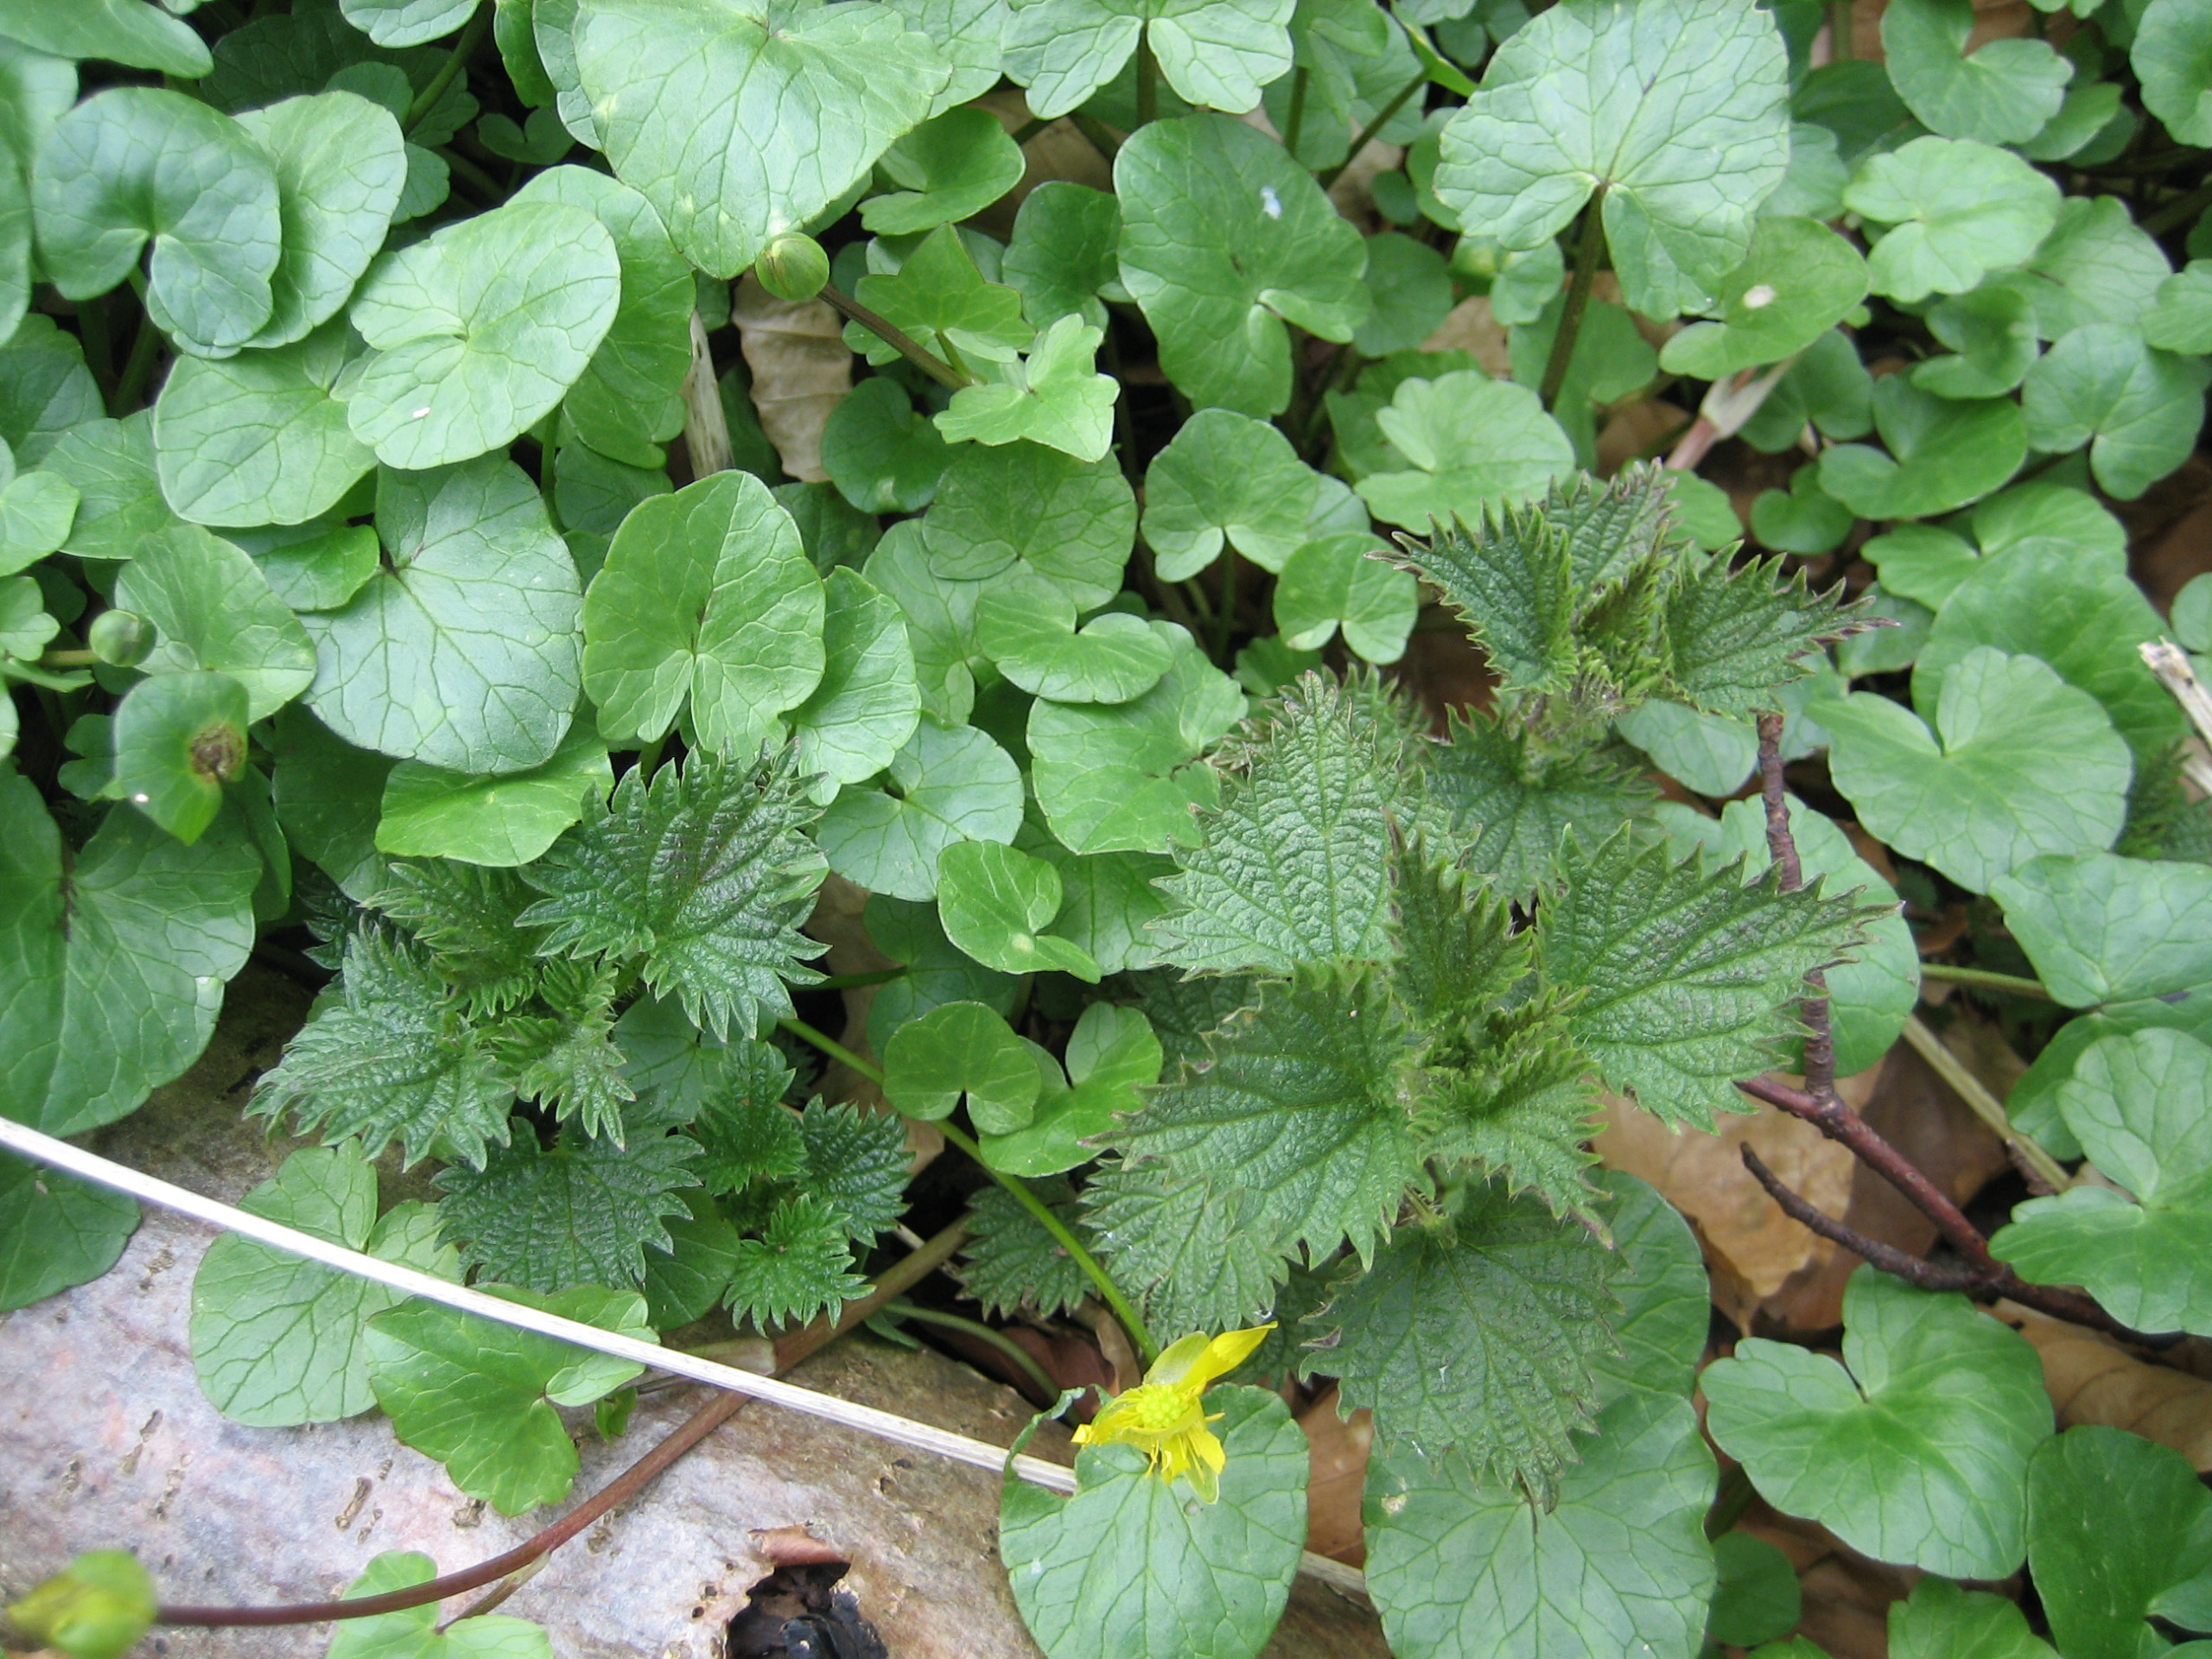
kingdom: Plantae
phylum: Tracheophyta
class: Magnoliopsida
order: Rosales
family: Urticaceae
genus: Urtica
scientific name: Urtica dioica
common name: Stor nælde
